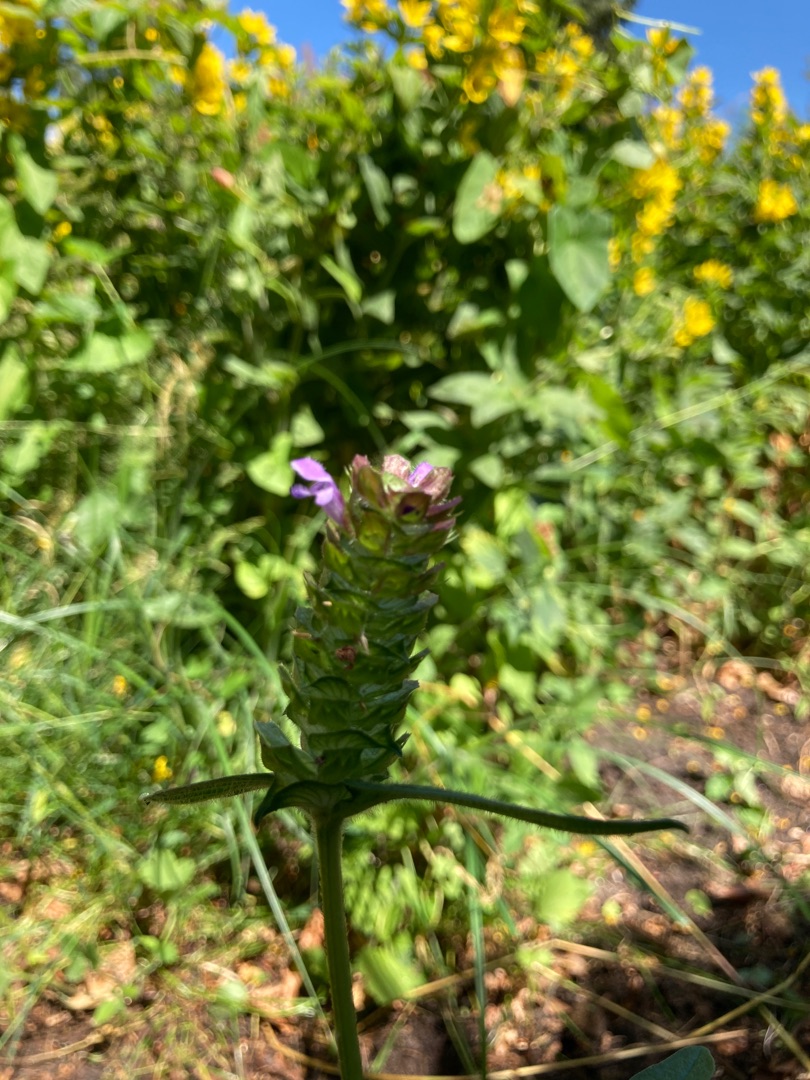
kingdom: Plantae
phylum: Tracheophyta
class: Magnoliopsida
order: Lamiales
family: Lamiaceae
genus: Prunella
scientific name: Prunella vulgaris
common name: Almindelig brunelle
